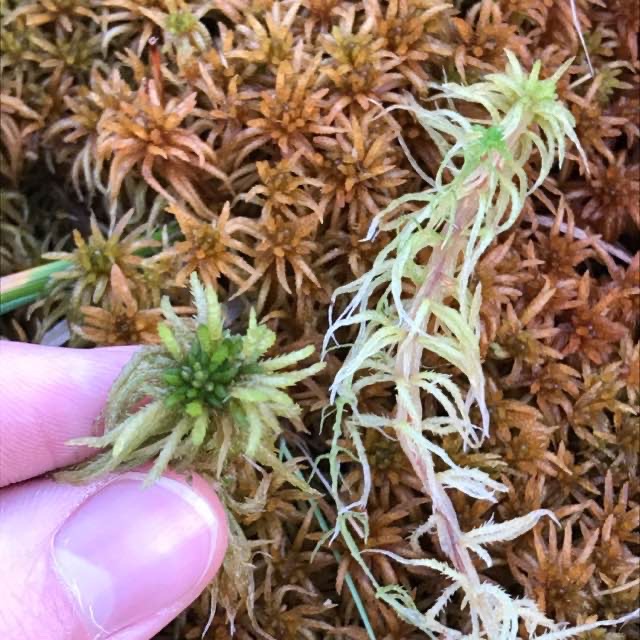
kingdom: Plantae
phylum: Bryophyta
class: Sphagnopsida
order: Sphagnales
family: Sphagnaceae
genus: Sphagnum
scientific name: Sphagnum teres
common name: Trindgrenet tørvemos
